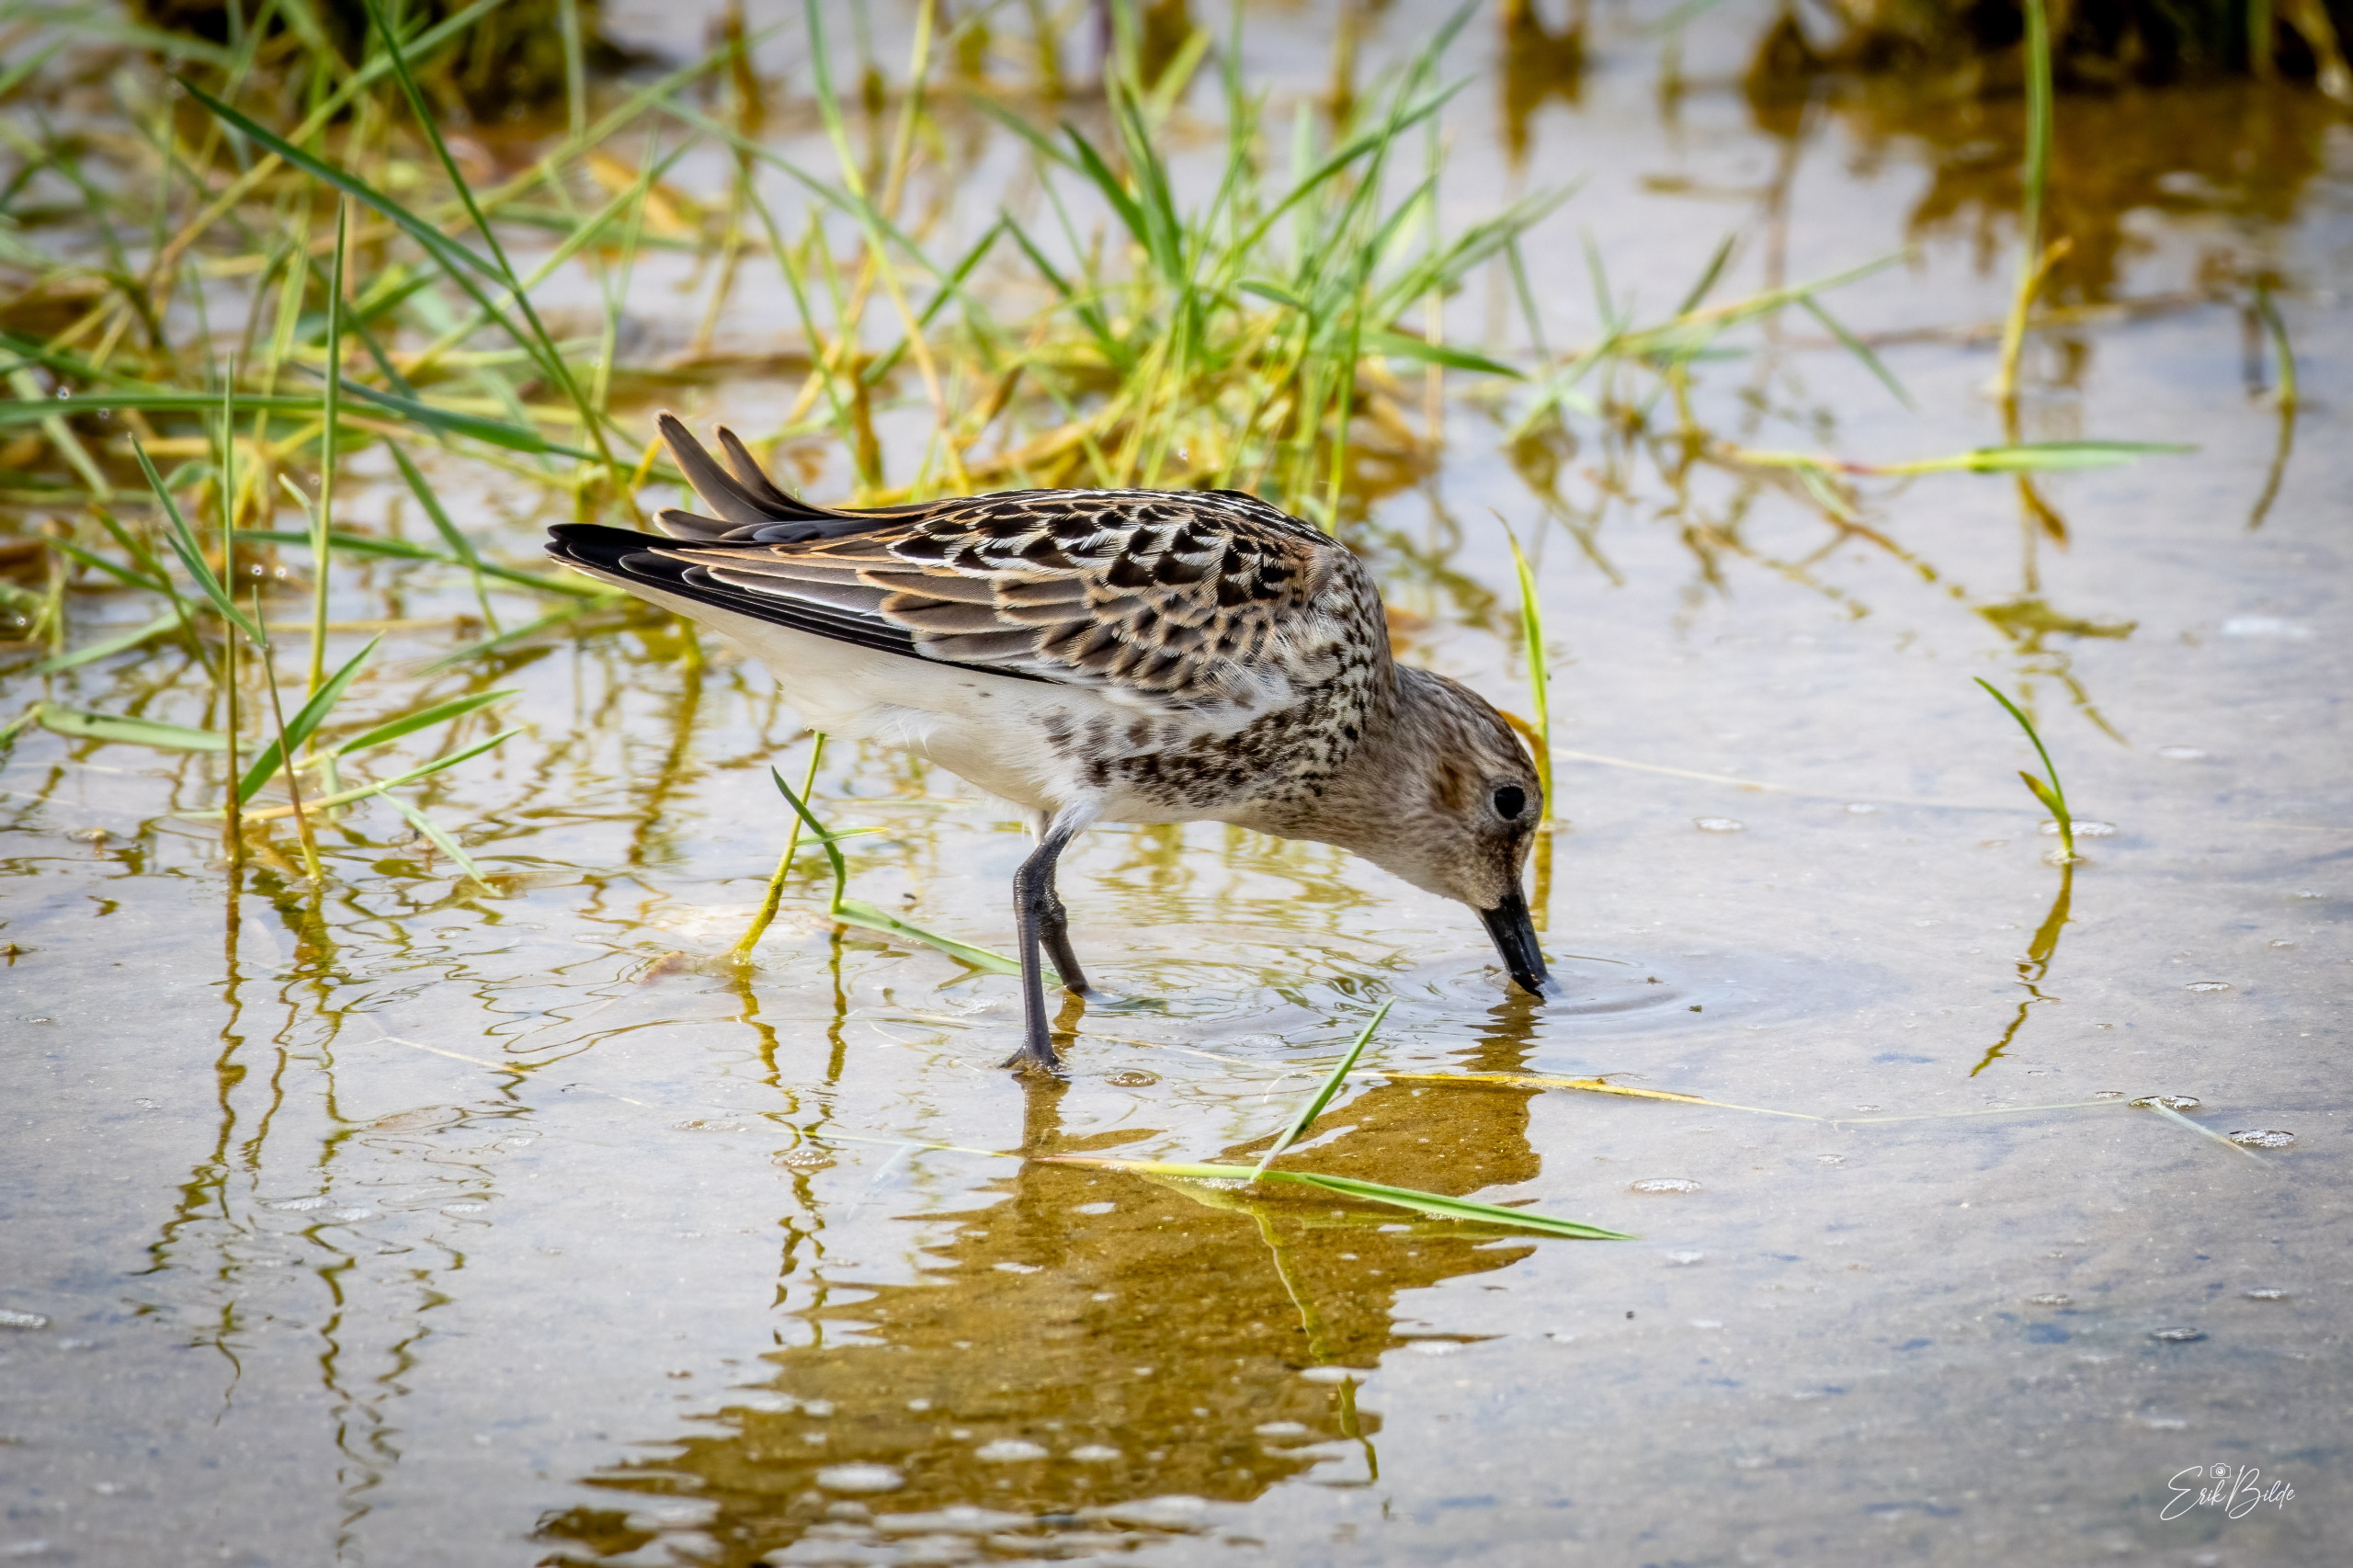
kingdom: Animalia
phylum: Chordata
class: Aves
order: Charadriiformes
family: Scolopacidae
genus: Calidris
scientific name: Calidris alpina
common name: Almindelig ryle
